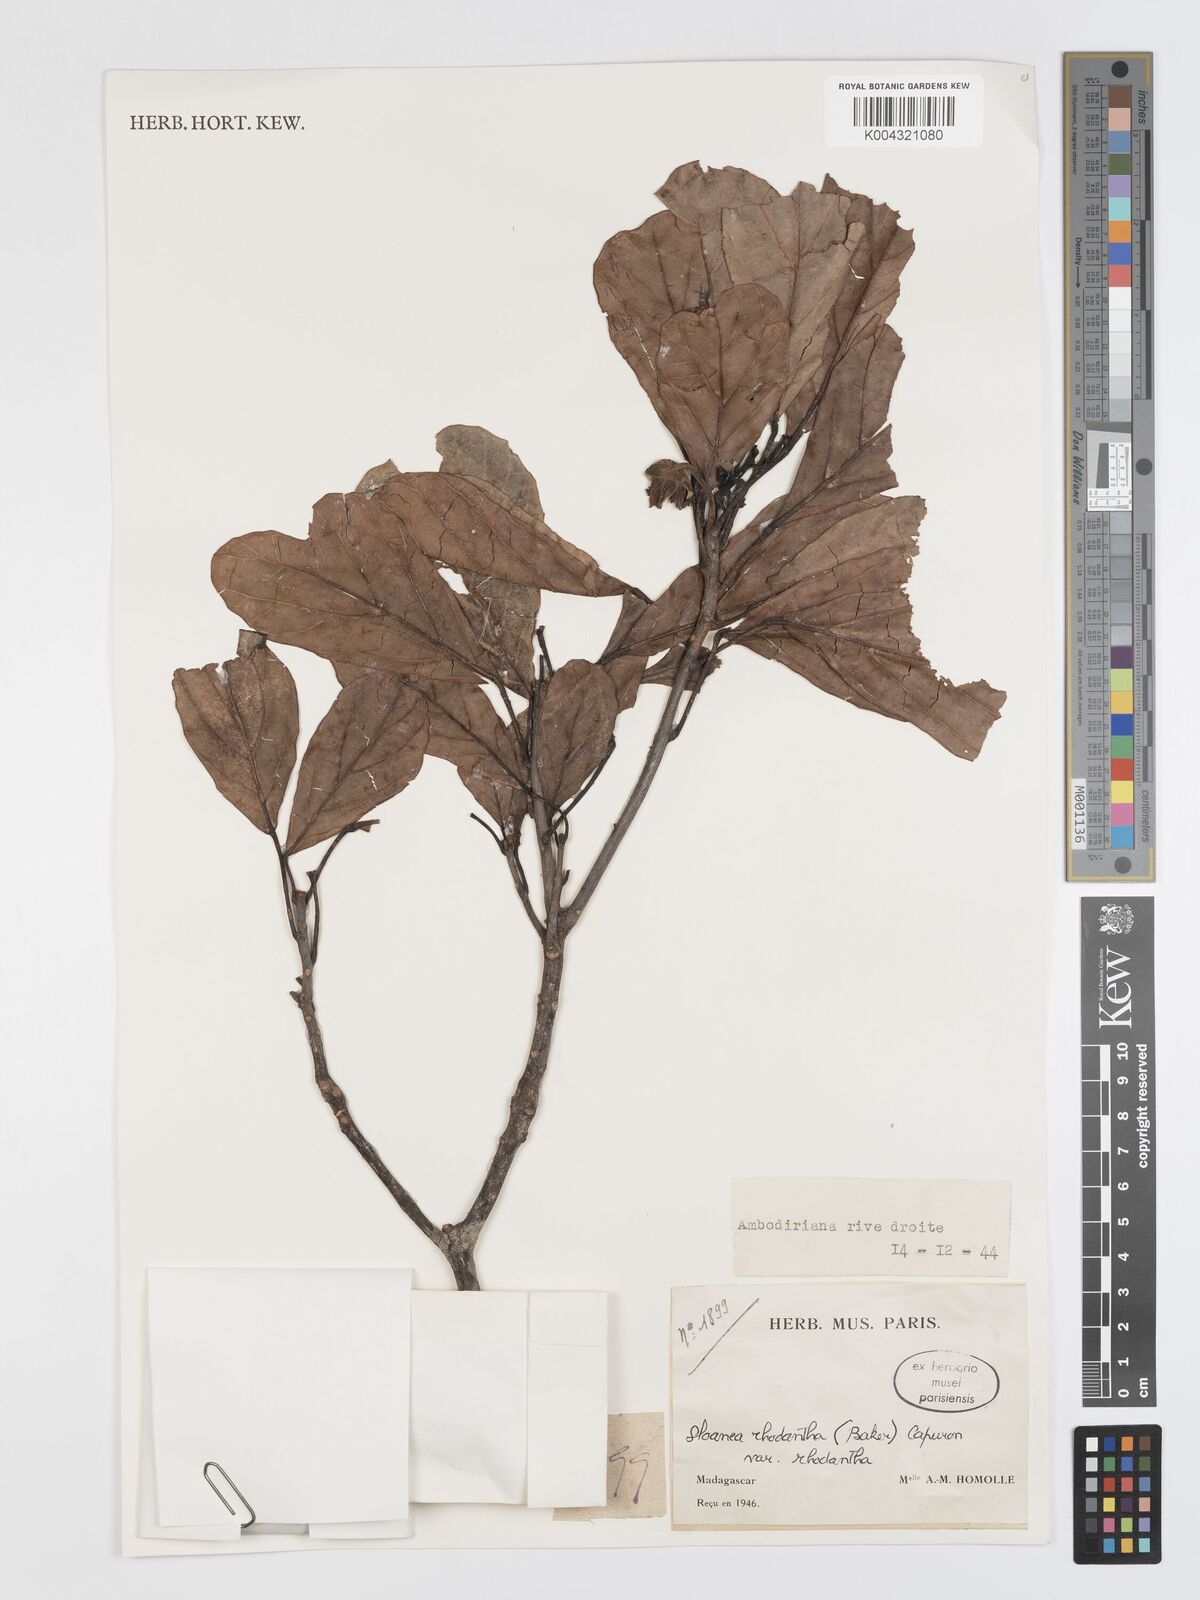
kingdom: Plantae
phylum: Tracheophyta
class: Magnoliopsida
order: Oxalidales
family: Elaeocarpaceae
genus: Sloanea
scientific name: Sloanea rhodantha
